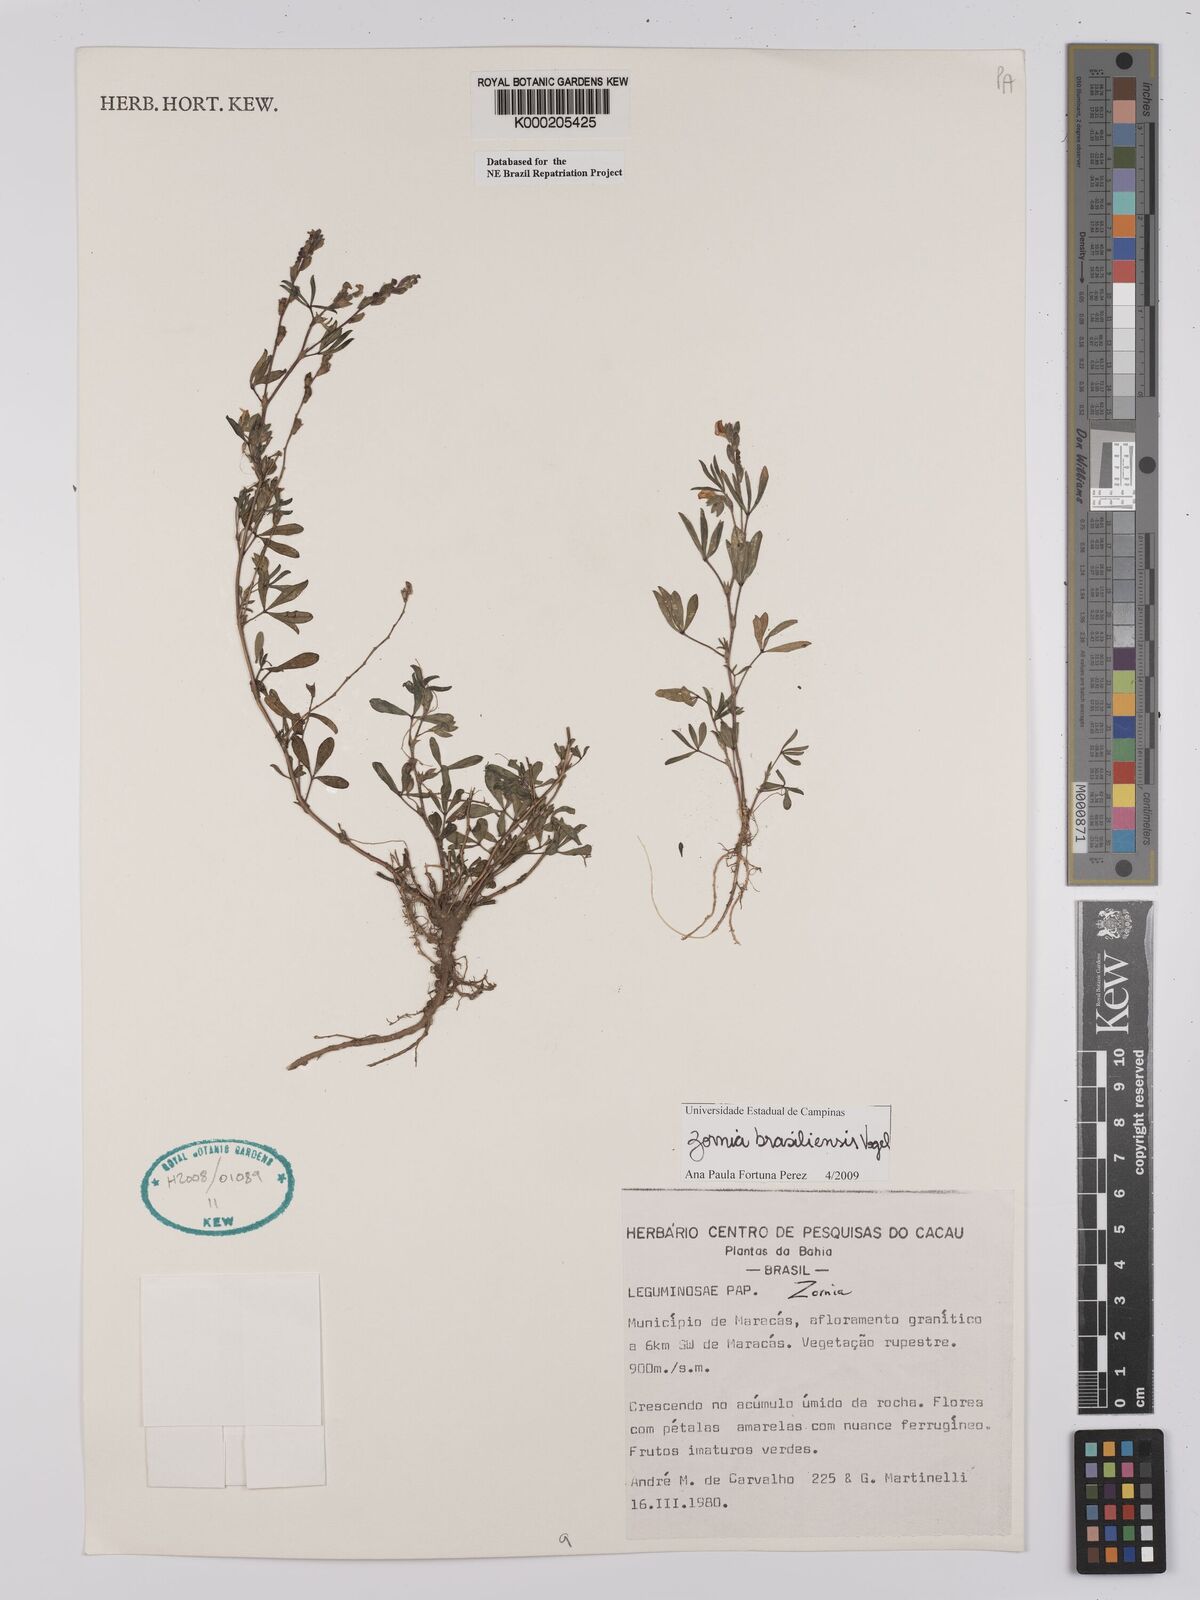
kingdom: Plantae
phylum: Tracheophyta
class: Magnoliopsida
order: Fabales
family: Fabaceae
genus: Zornia
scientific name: Zornia reticulata
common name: Reticulate viperina
